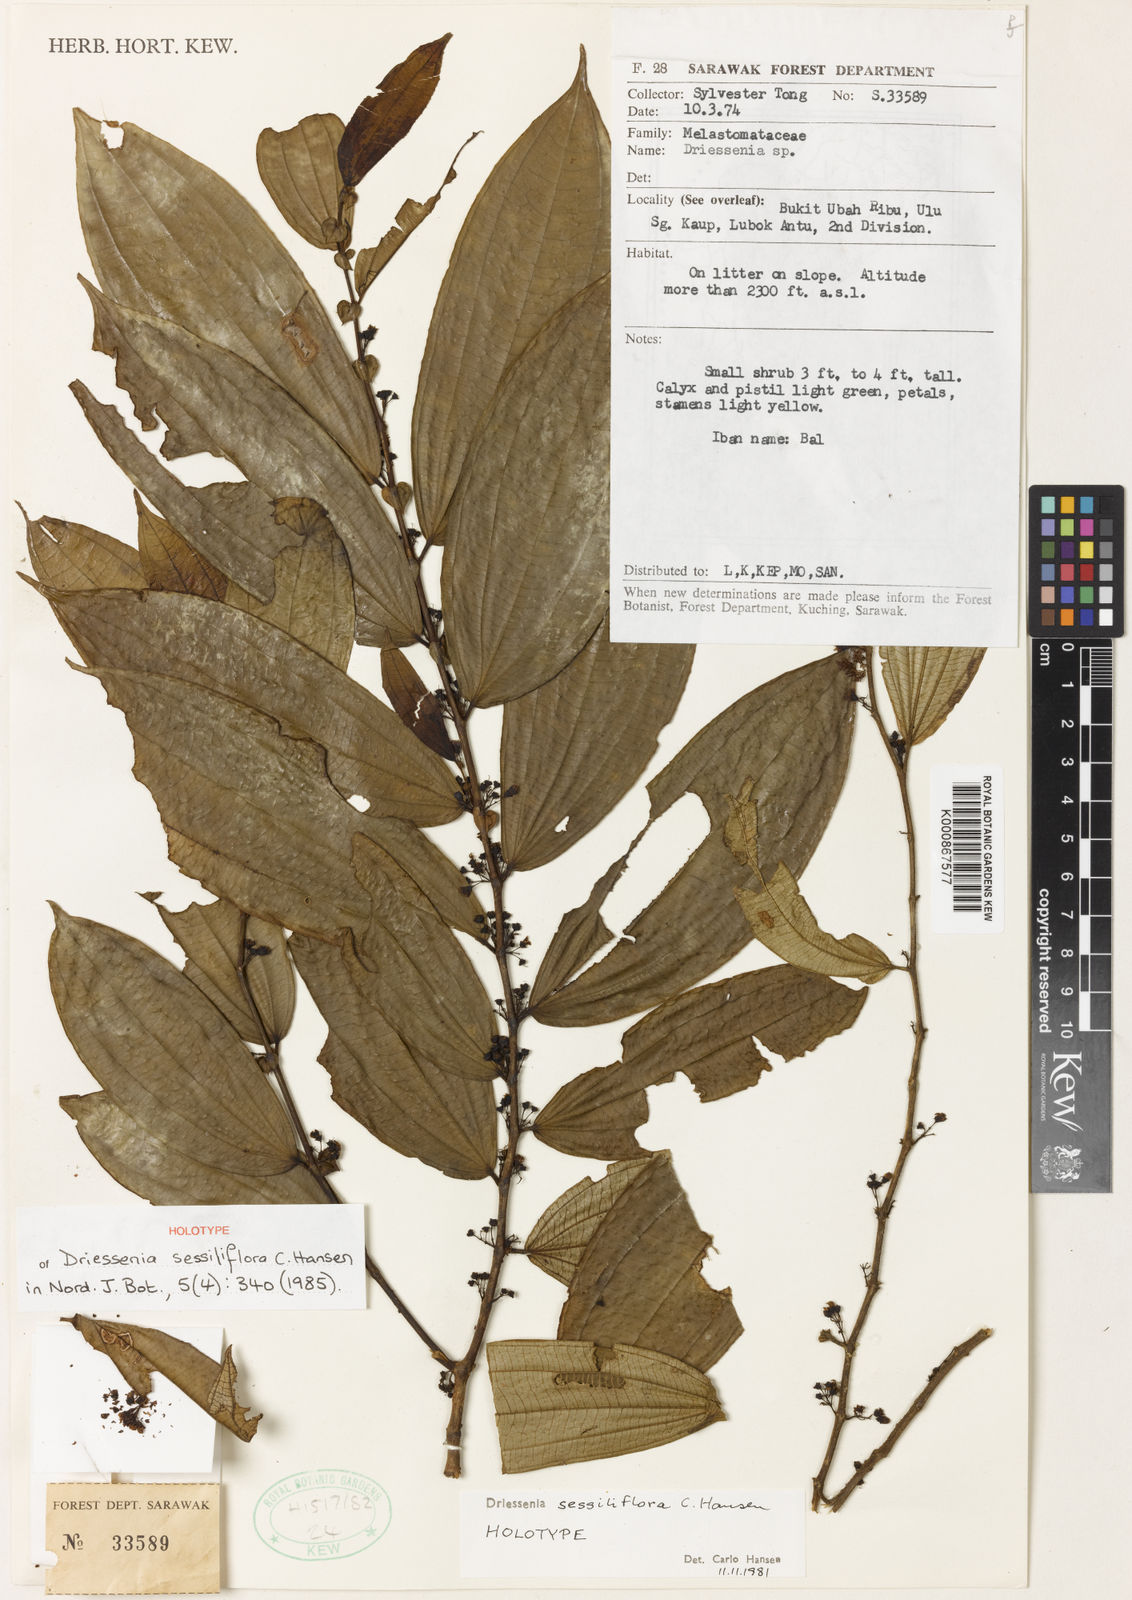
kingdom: Plantae
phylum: Tracheophyta
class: Magnoliopsida
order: Myrtales
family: Melastomataceae
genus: Driessenia
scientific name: Driessenia sessiliflora
